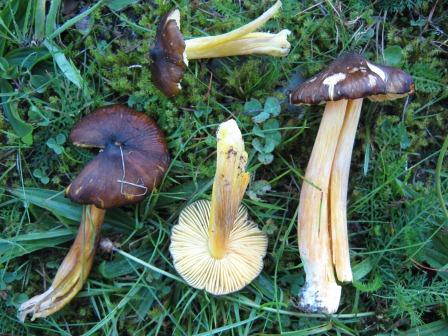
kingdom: Fungi
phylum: Basidiomycota
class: Agaricomycetes
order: Agaricales
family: Hygrophoraceae
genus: Hygrocybe
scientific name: Hygrocybe spadicea
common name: daddelbrun vokshat
